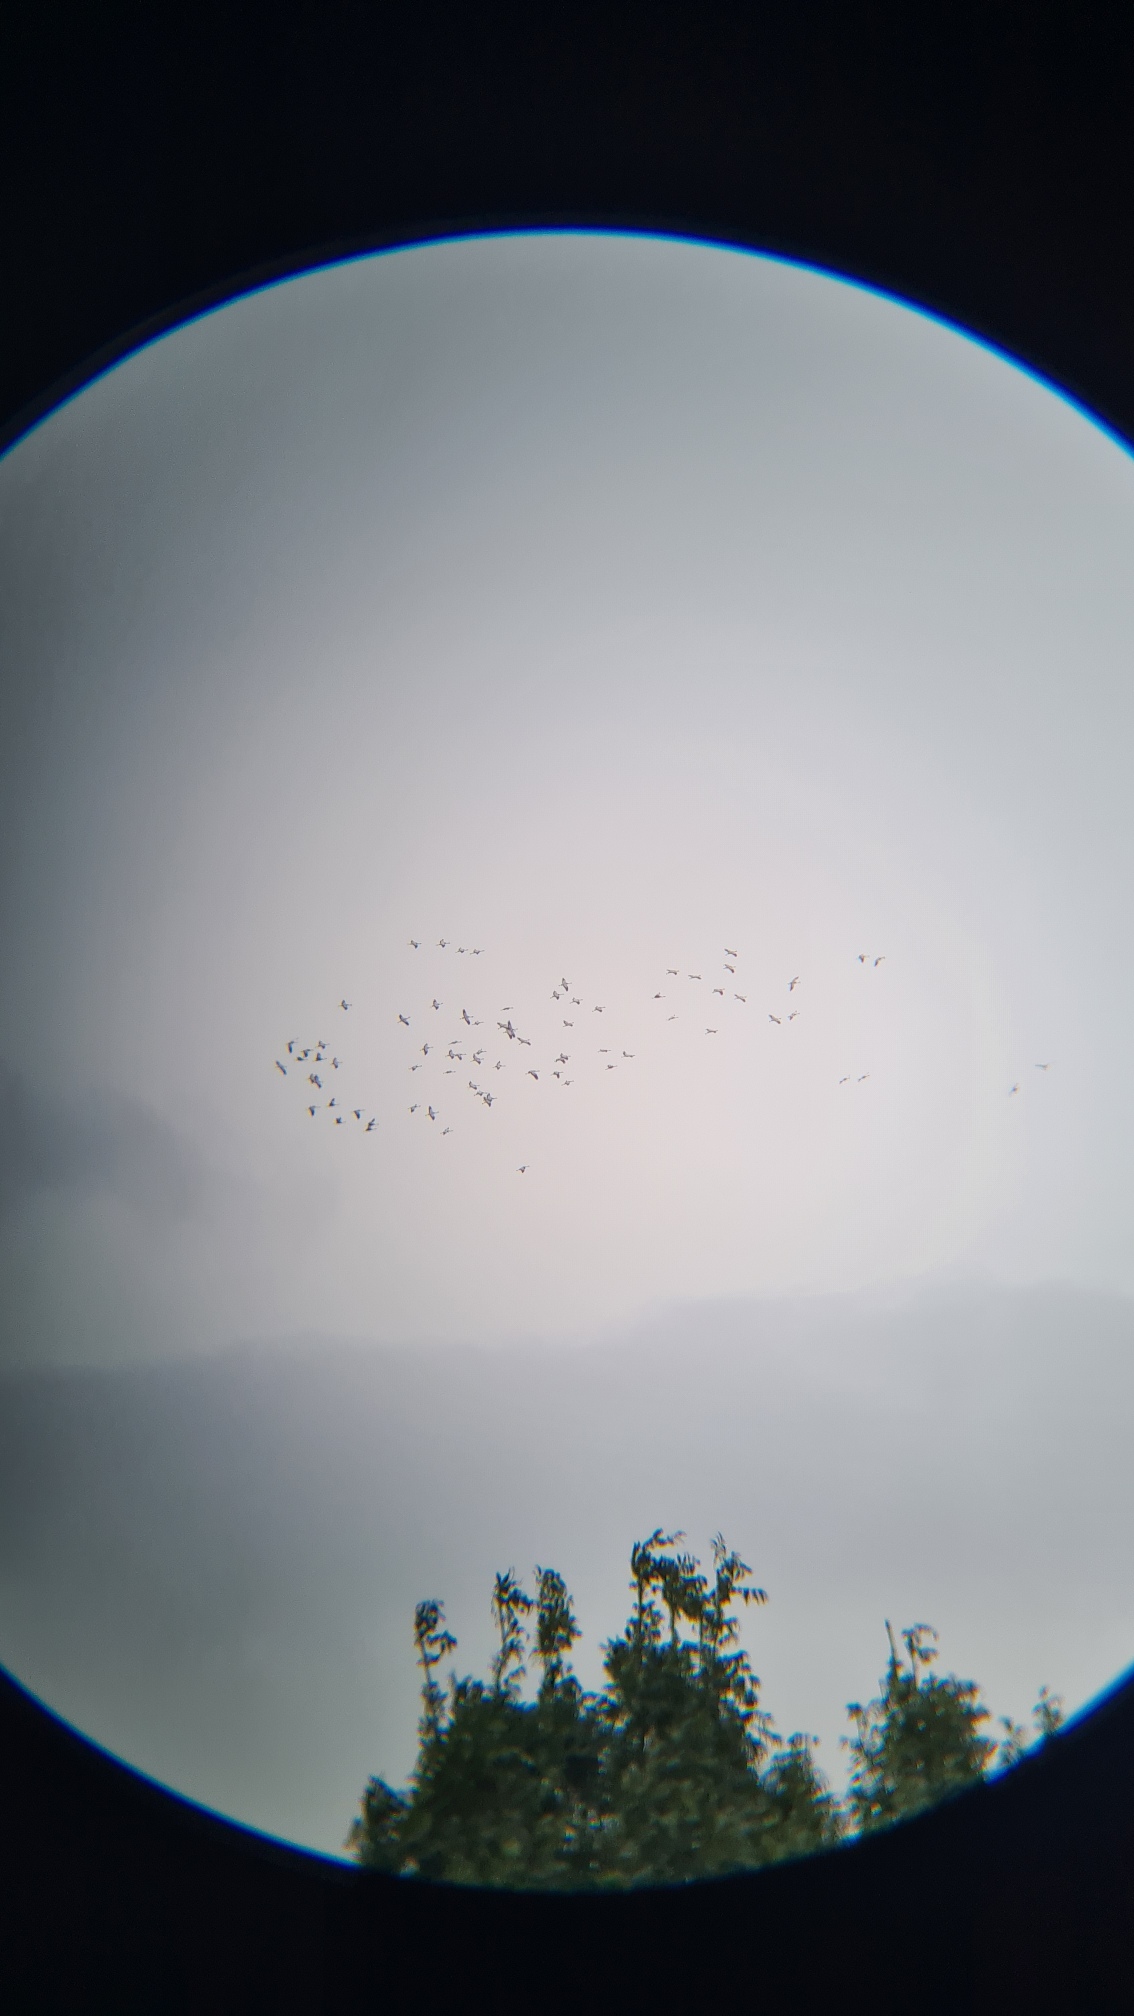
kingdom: Animalia
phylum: Chordata
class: Aves
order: Gruiformes
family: Gruidae
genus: Grus
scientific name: Grus grus
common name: Trane
